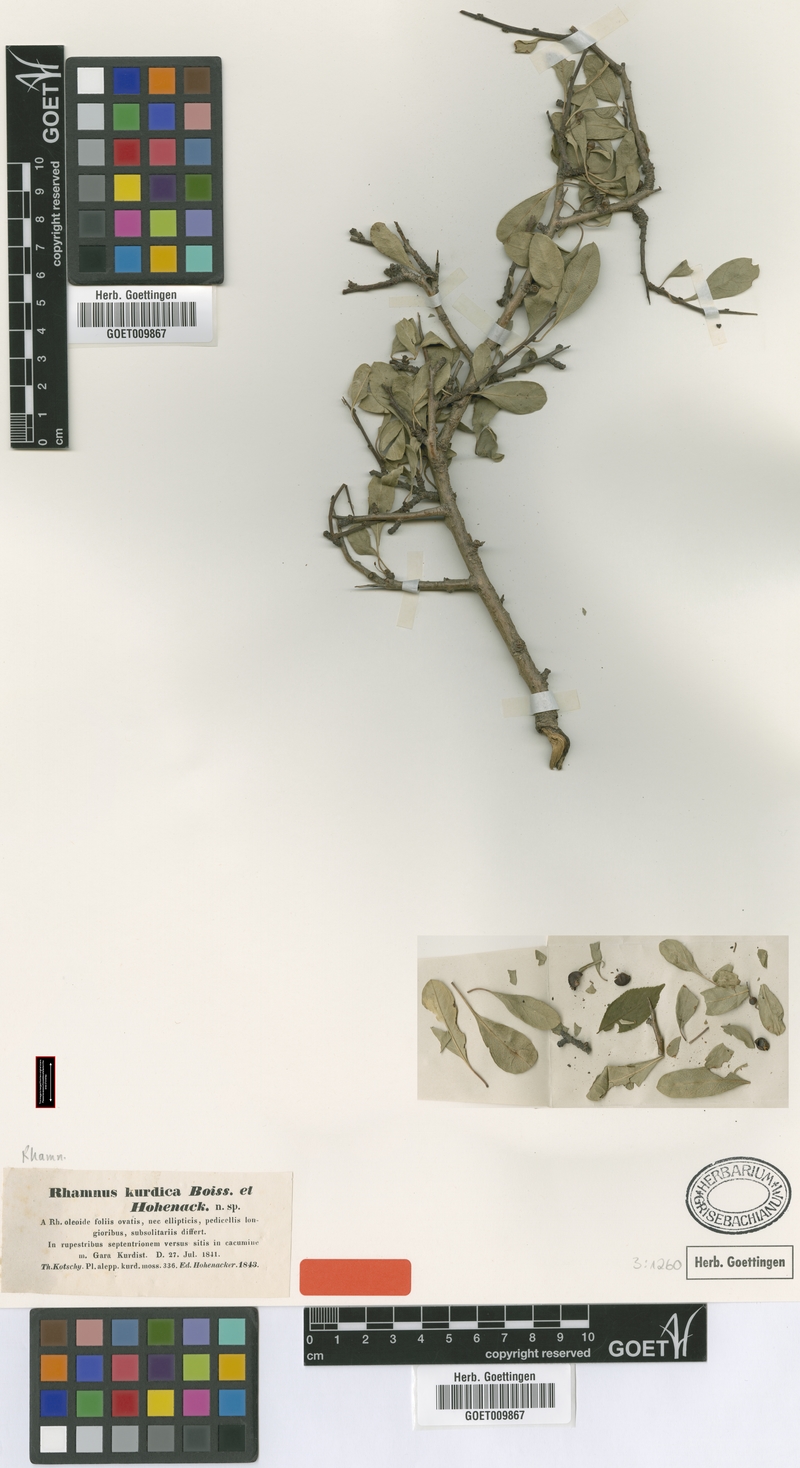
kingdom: Plantae
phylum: Tracheophyta
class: Magnoliopsida
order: Rosales
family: Rhamnaceae
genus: Rhamnus
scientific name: Rhamnus kurdica
